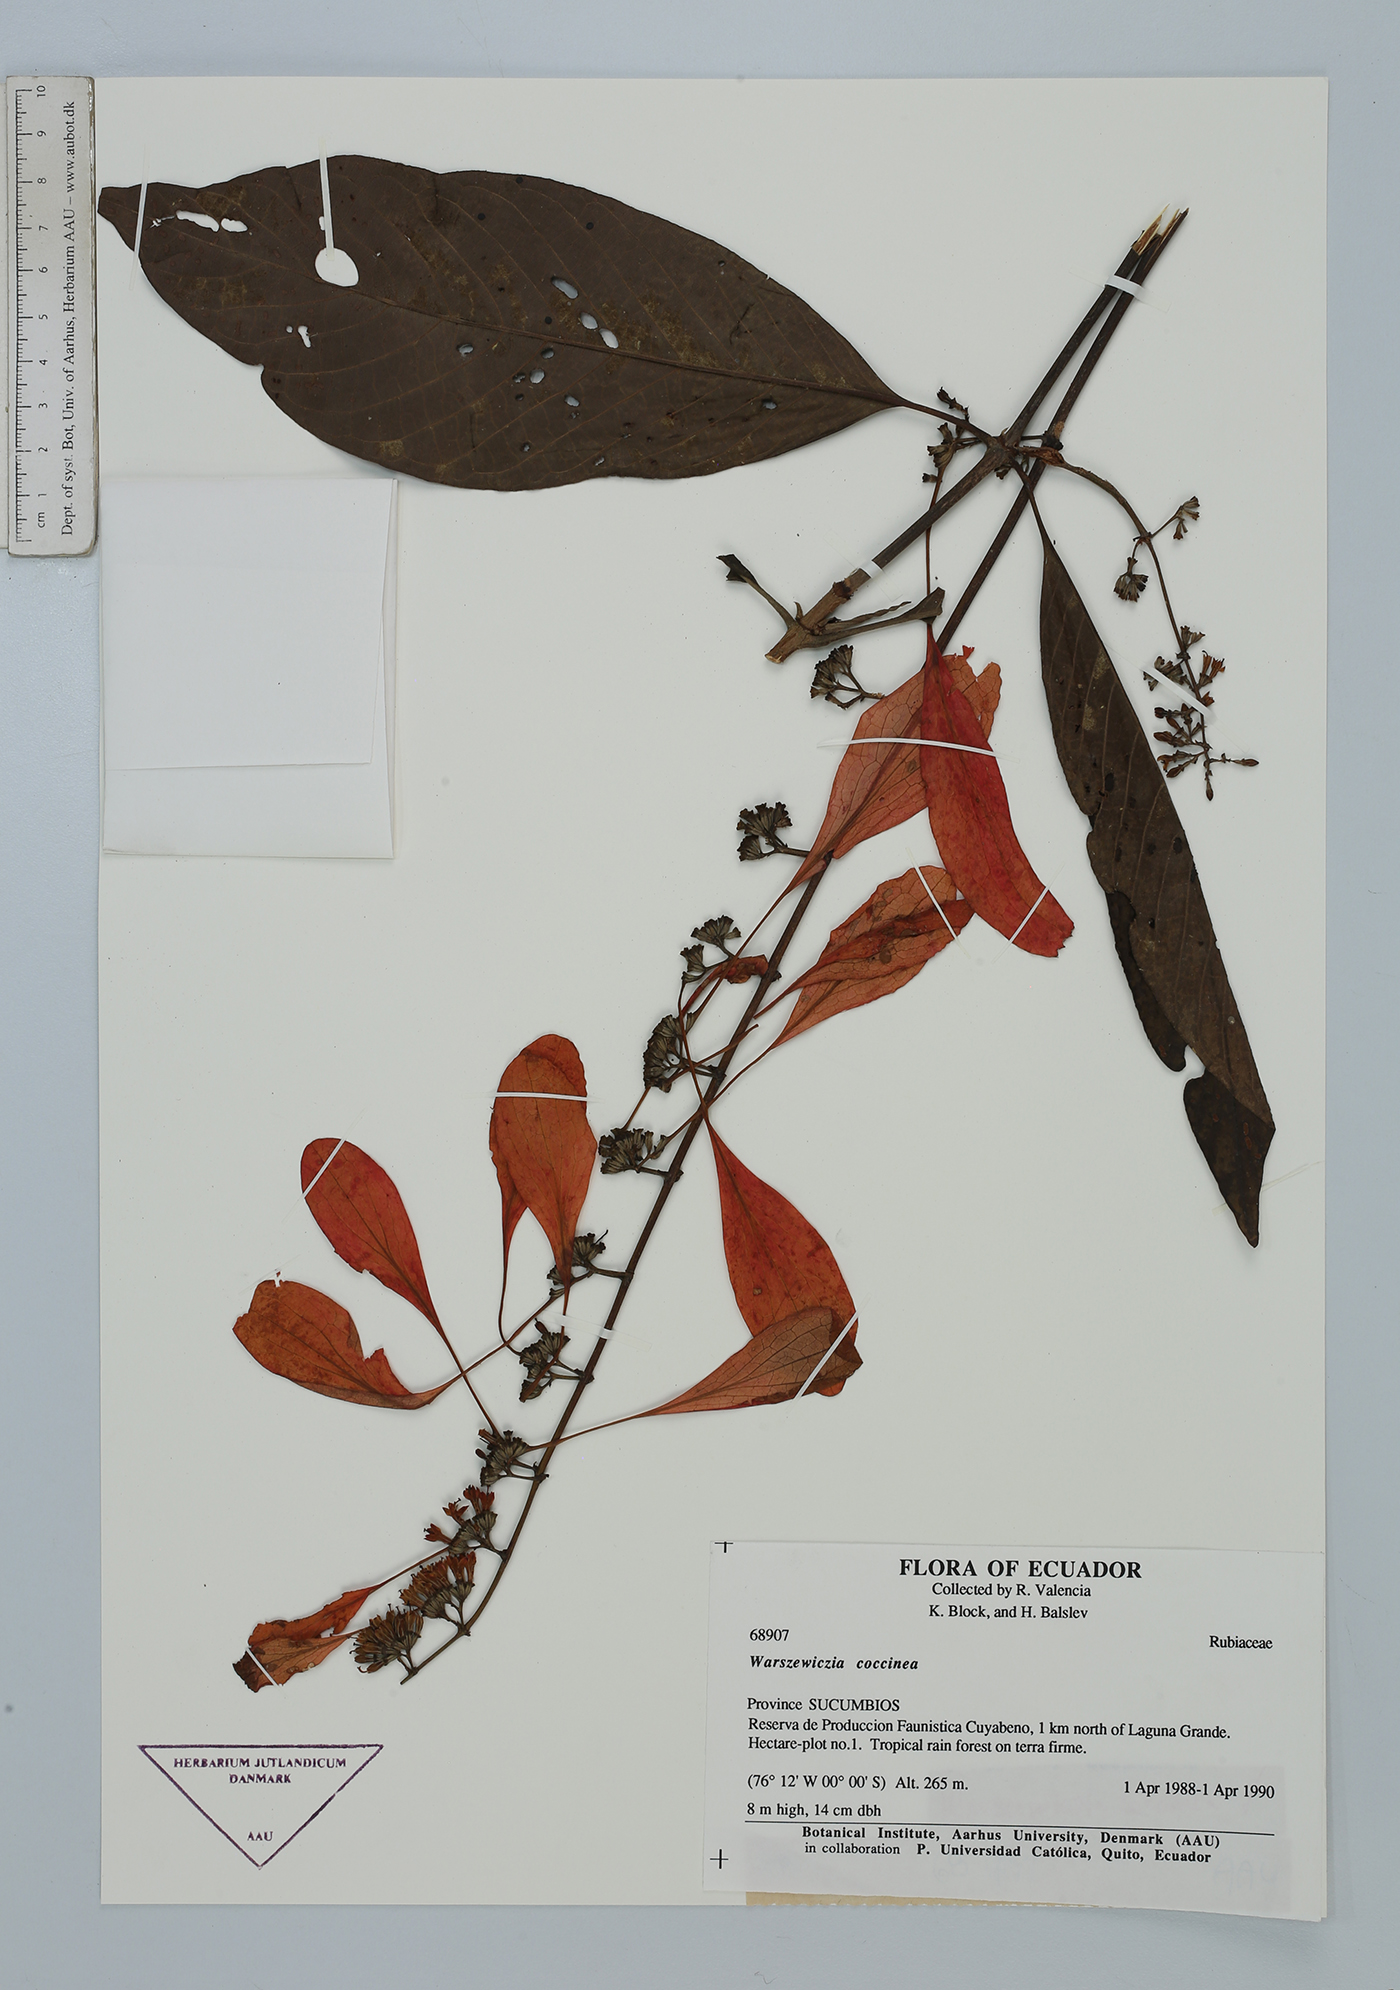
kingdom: Plantae
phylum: Tracheophyta
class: Magnoliopsida
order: Gentianales
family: Rubiaceae
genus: Warszewiczia
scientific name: Warszewiczia coccinea
